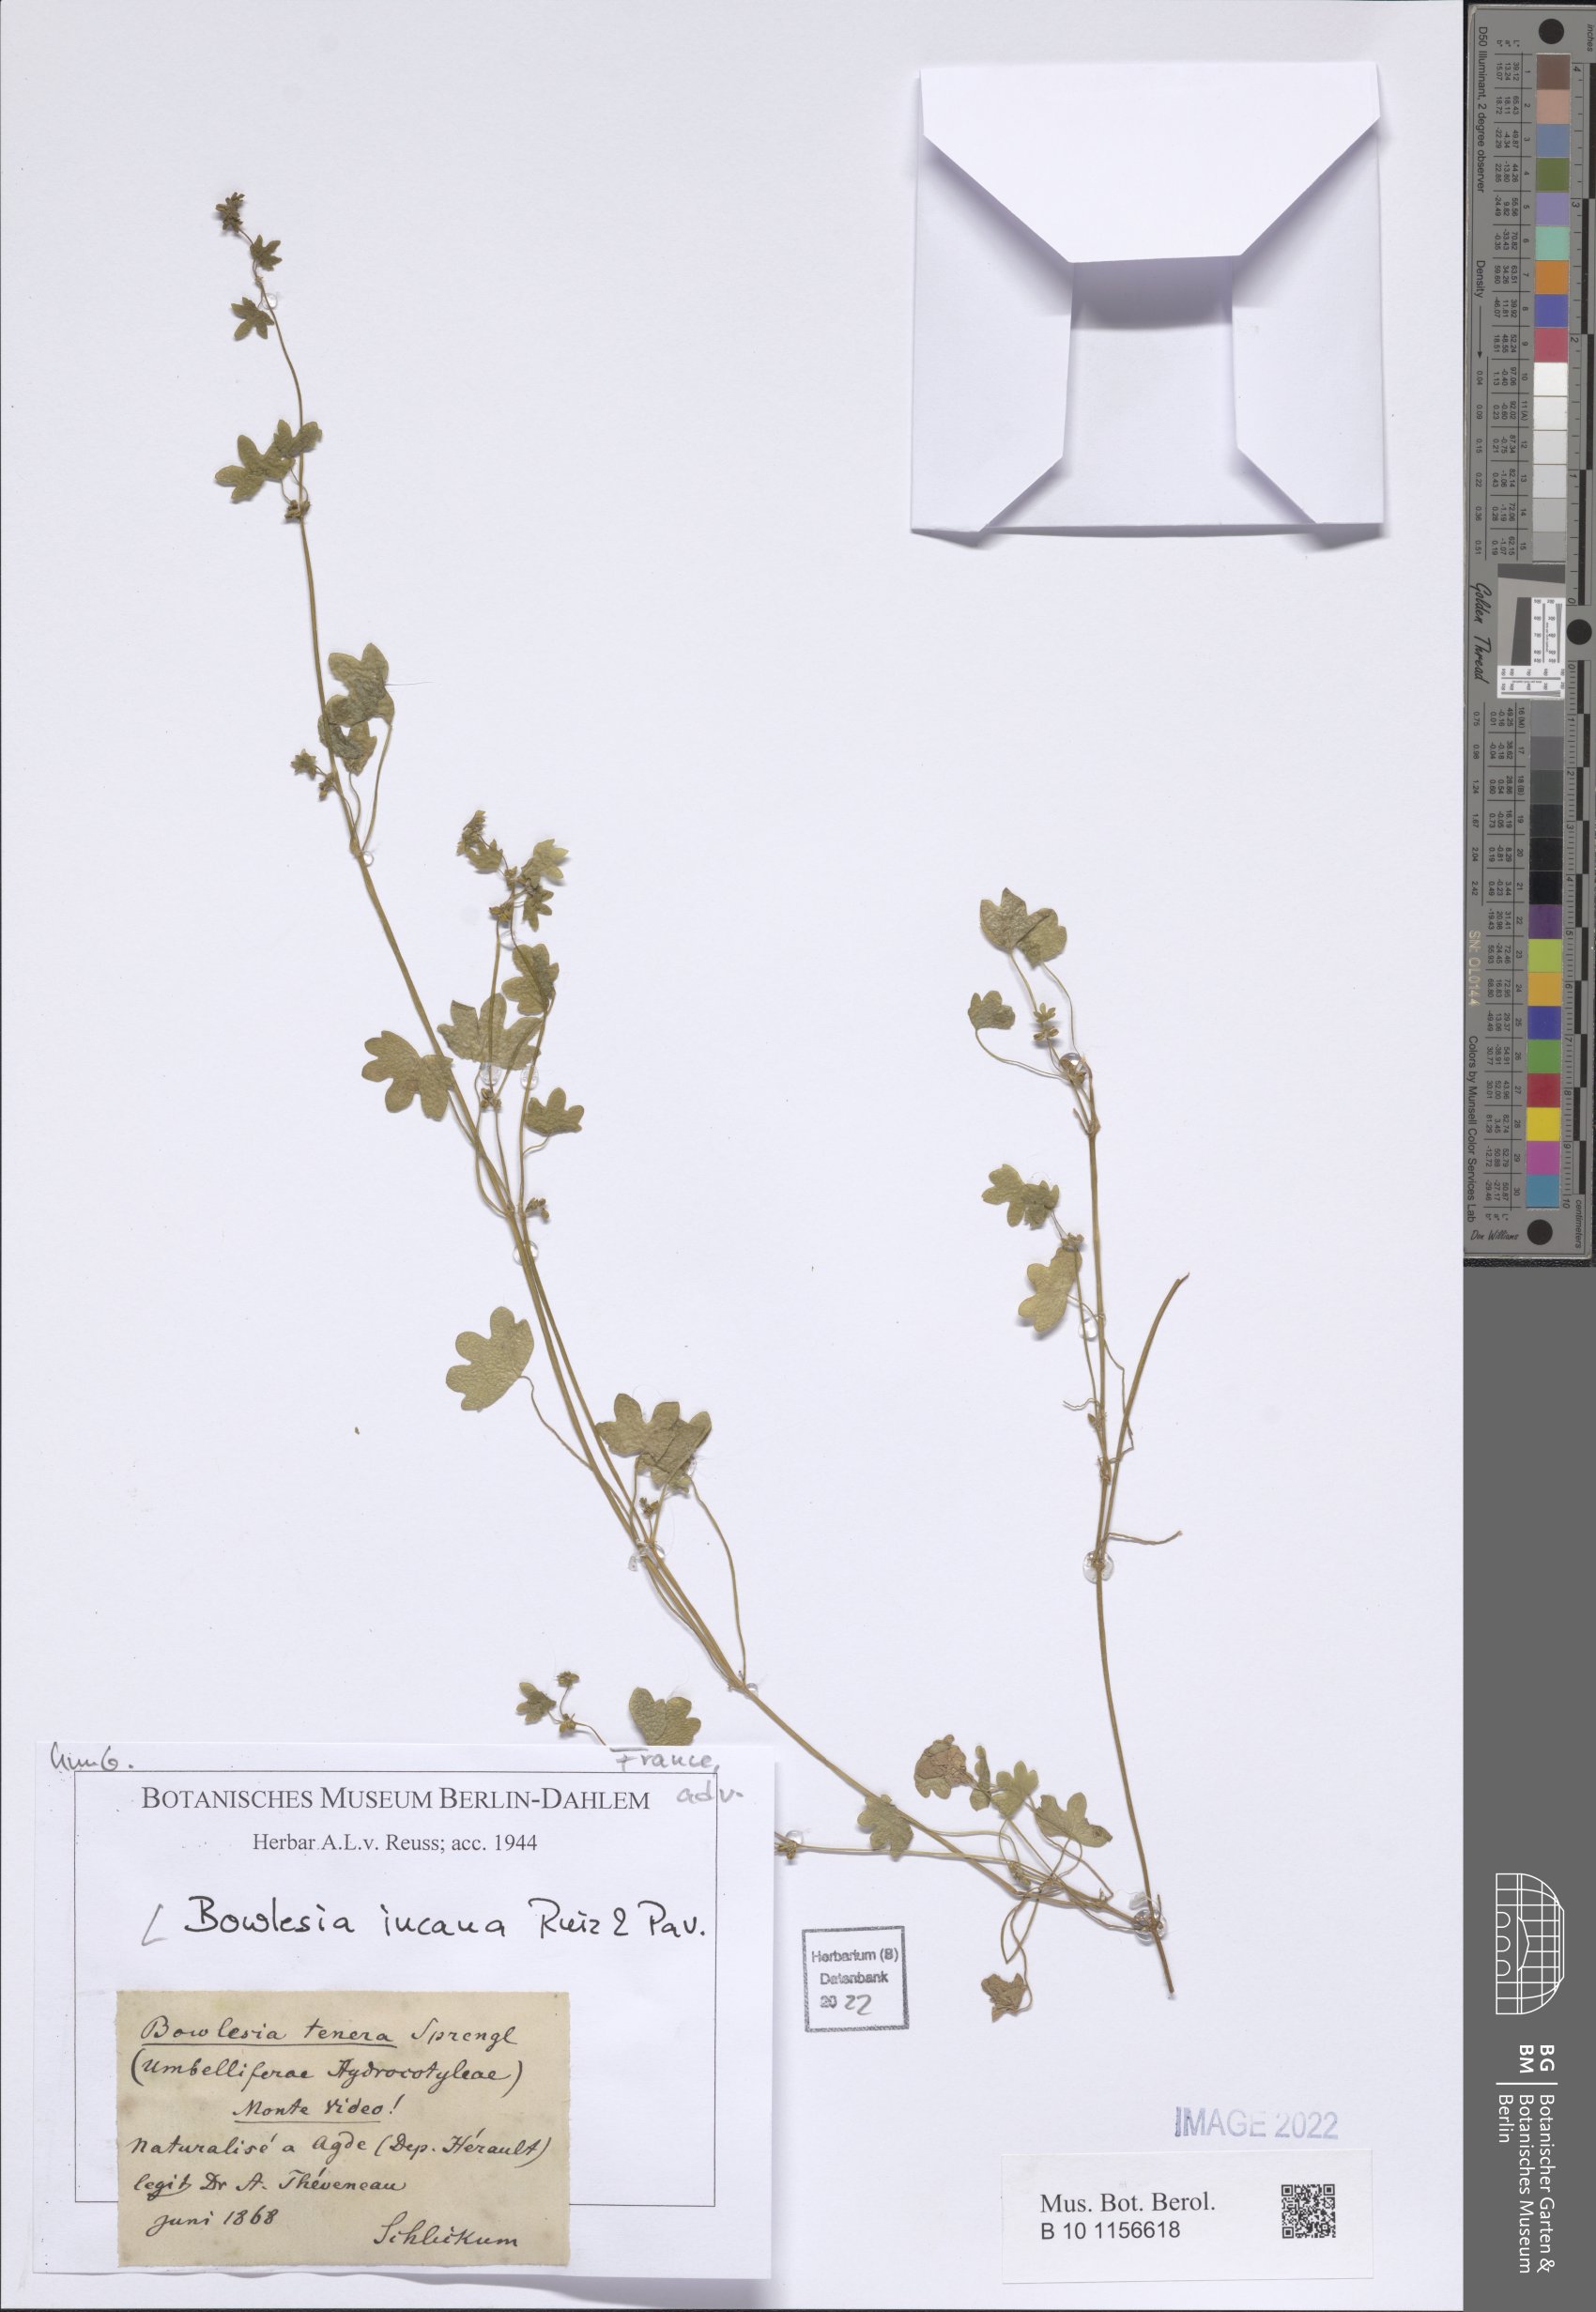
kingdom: Plantae
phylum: Tracheophyta
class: Magnoliopsida
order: Apiales
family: Apiaceae
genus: Bowlesia
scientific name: Bowlesia incana
